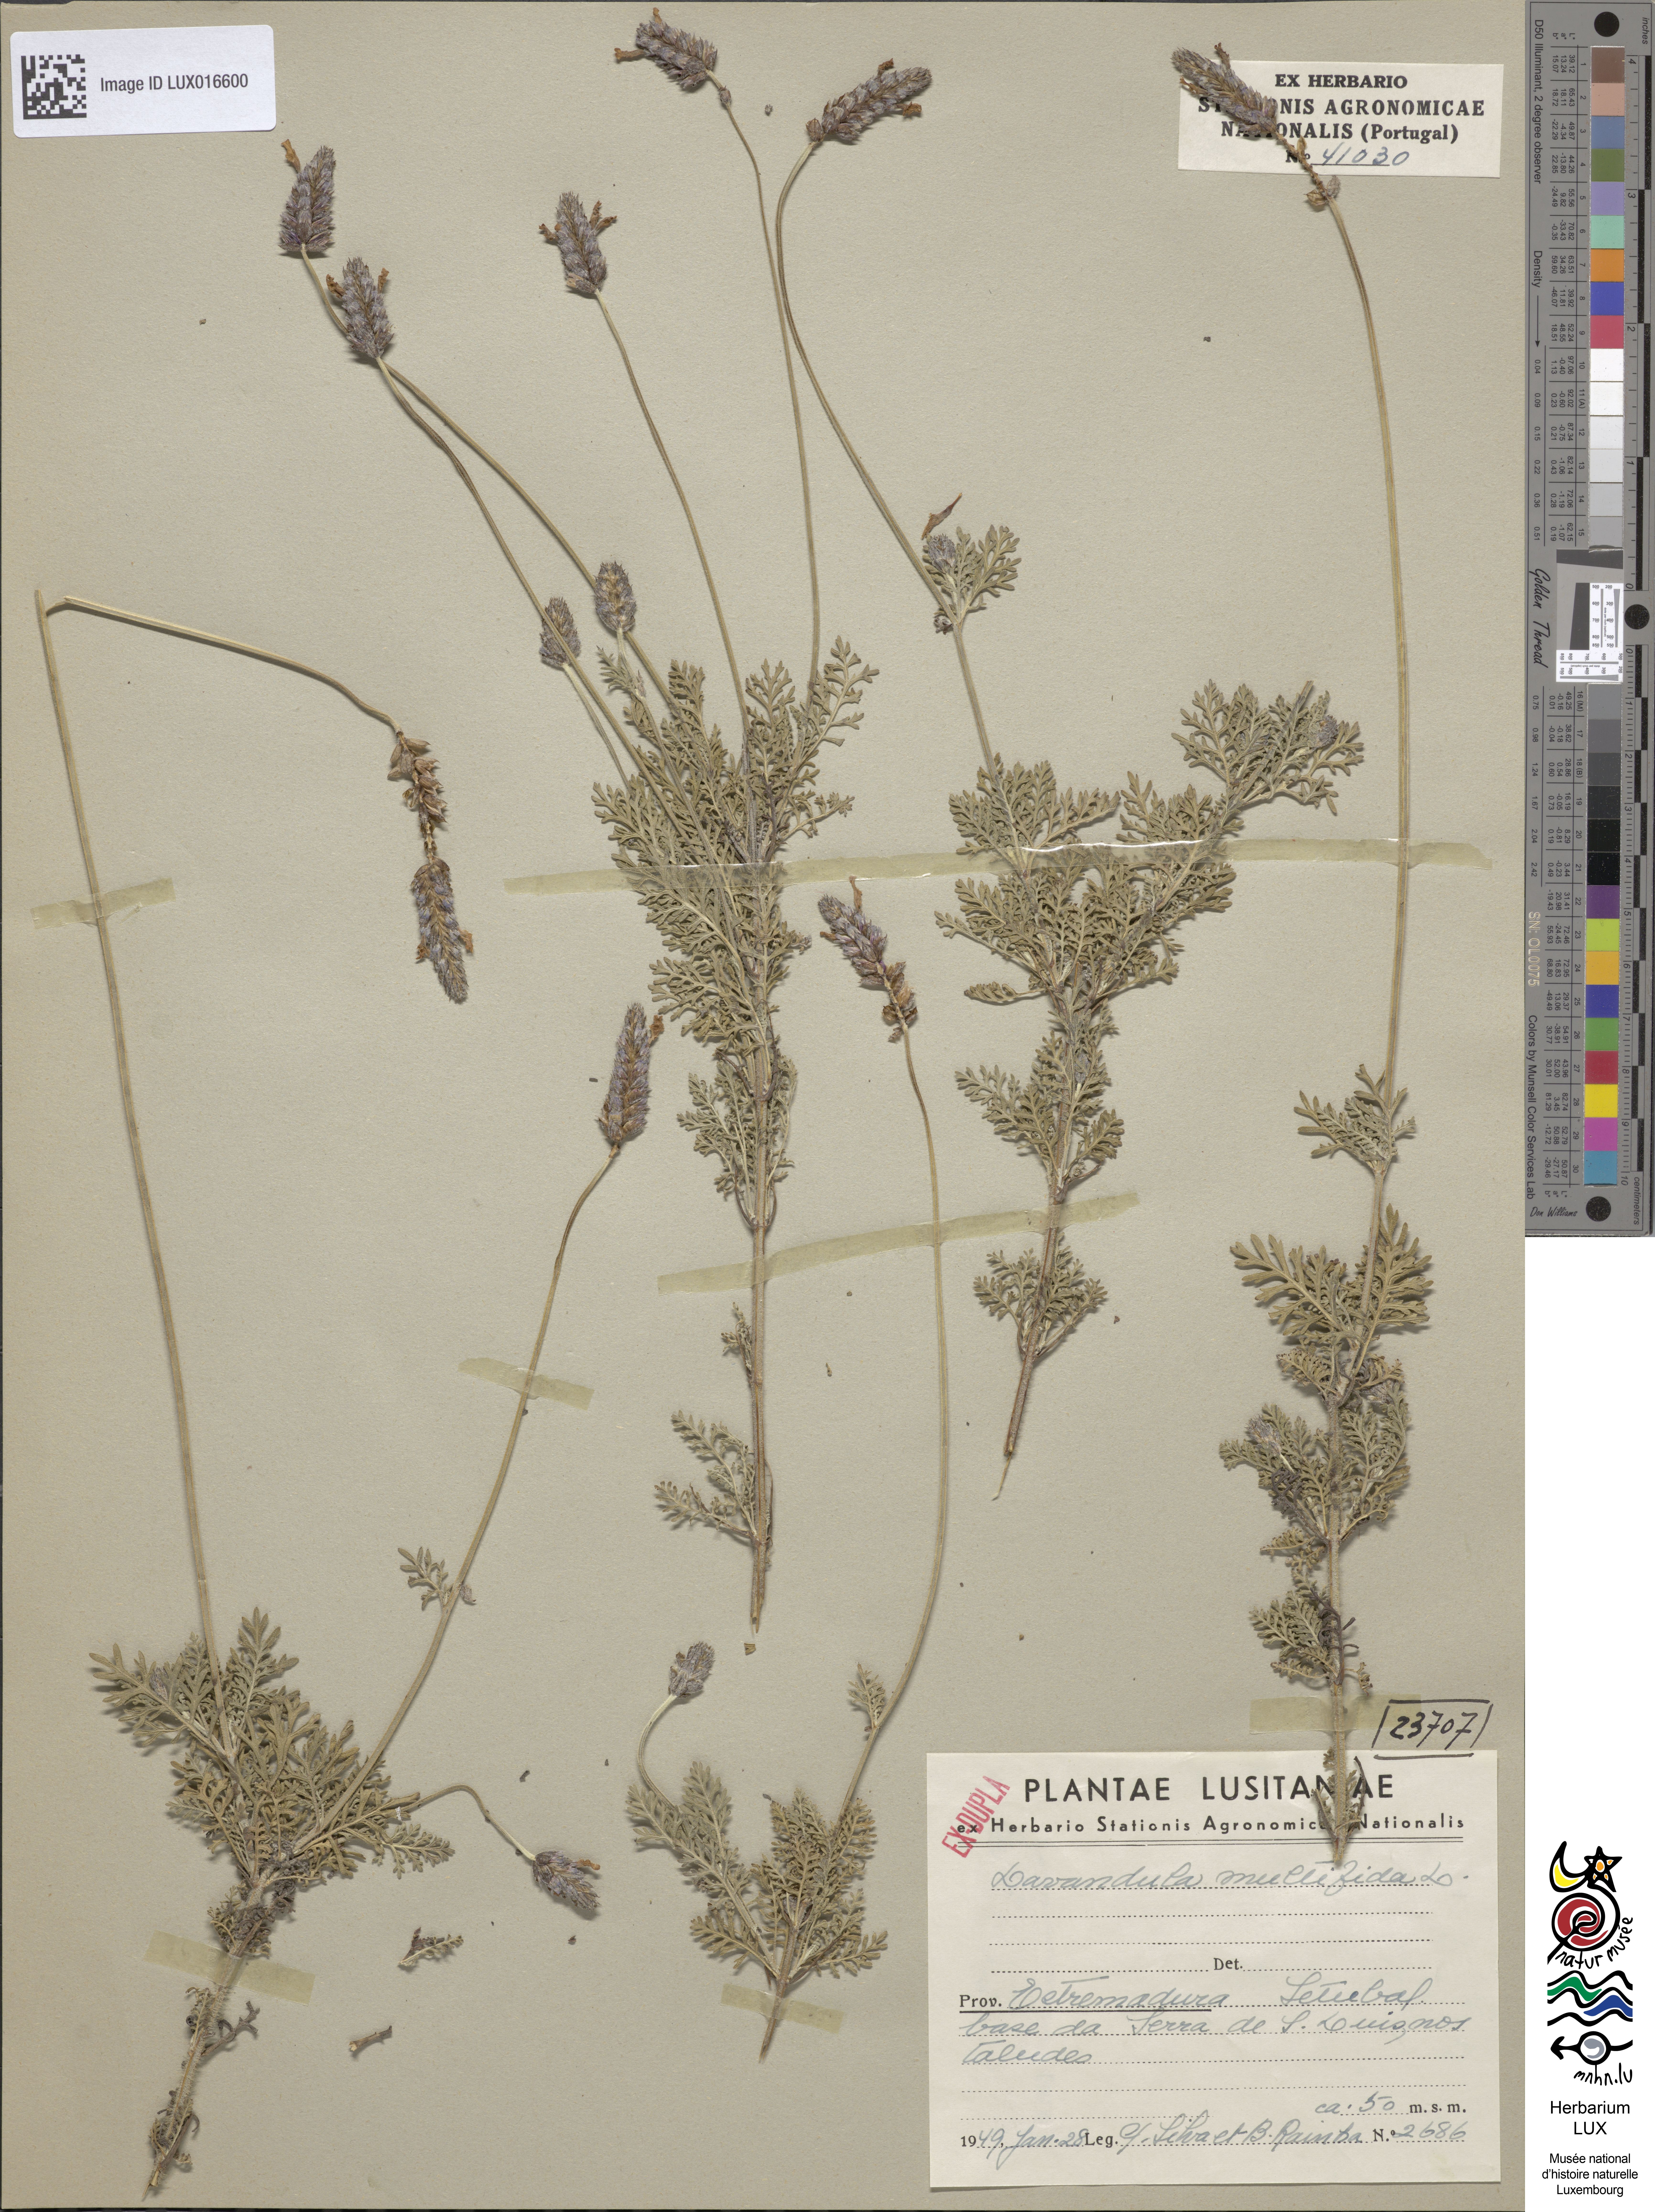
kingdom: Plantae
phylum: Tracheophyta
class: Magnoliopsida
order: Lamiales
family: Lamiaceae
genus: Lavandula
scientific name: Lavandula multifida
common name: Fern-leaf lavender
